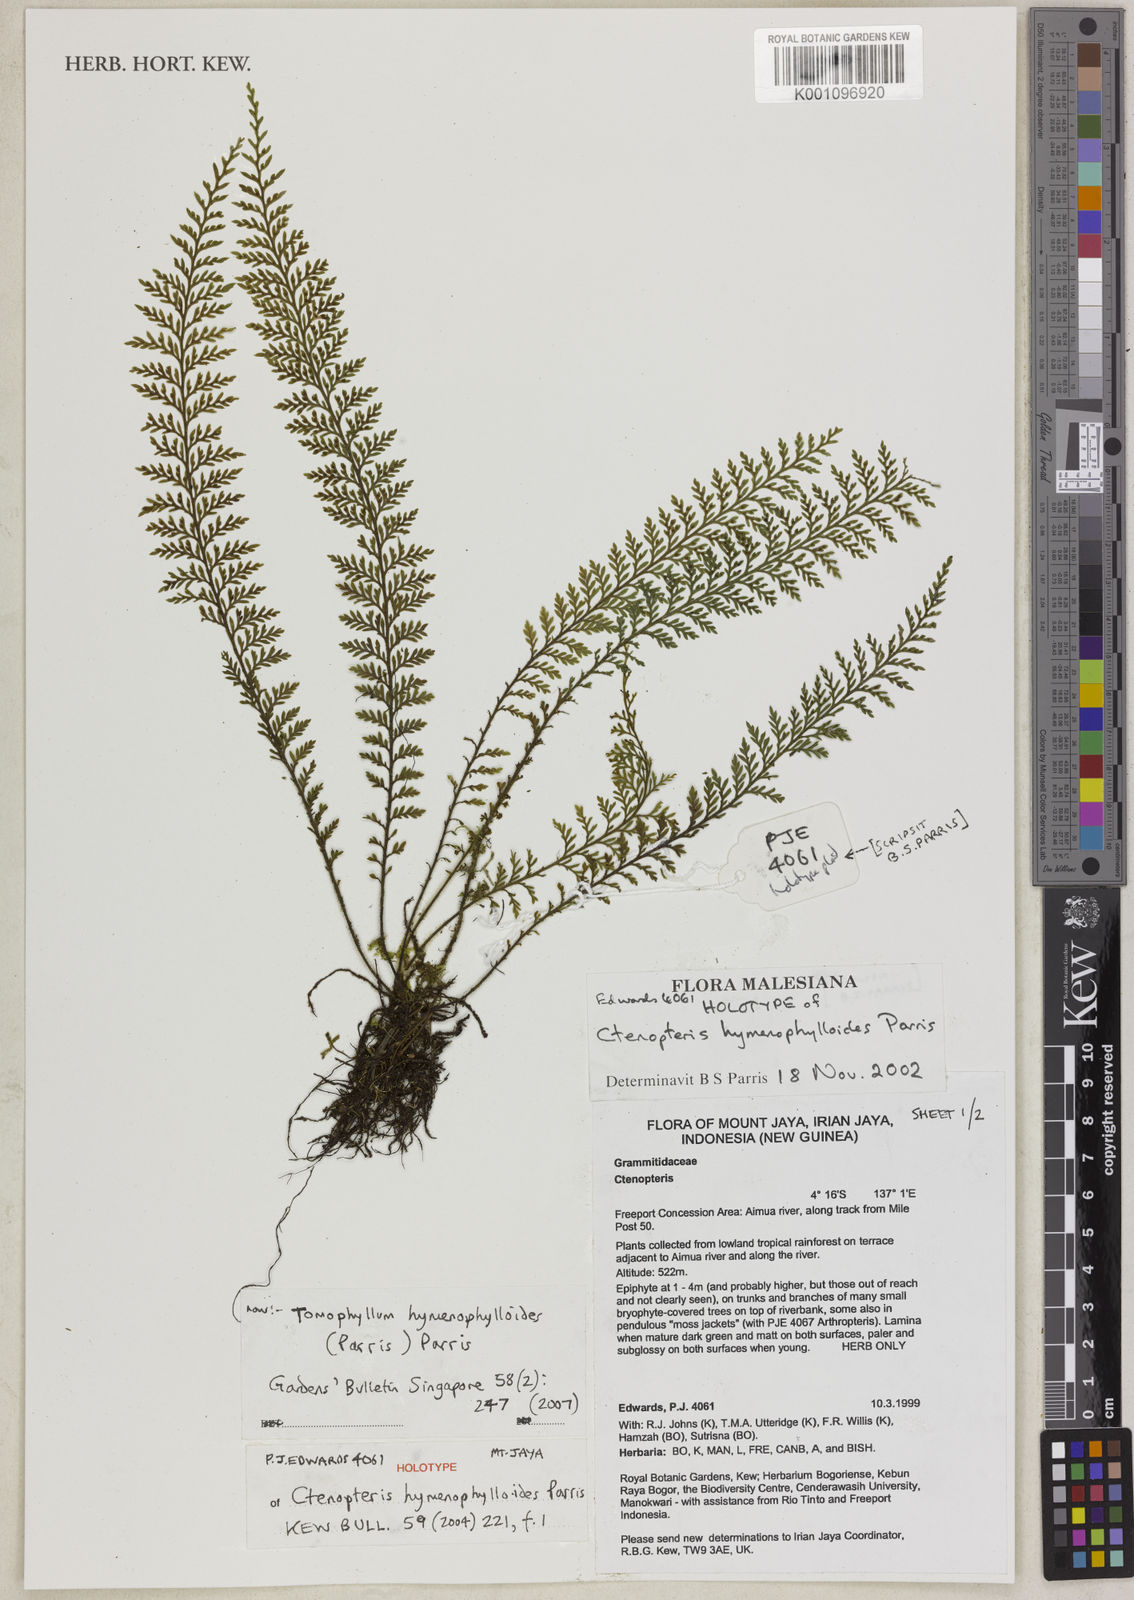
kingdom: Plantae
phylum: Tracheophyta
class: Polypodiopsida
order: Polypodiales
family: Polypodiaceae
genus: Tomophyllum
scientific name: Tomophyllum hymenophylloides
